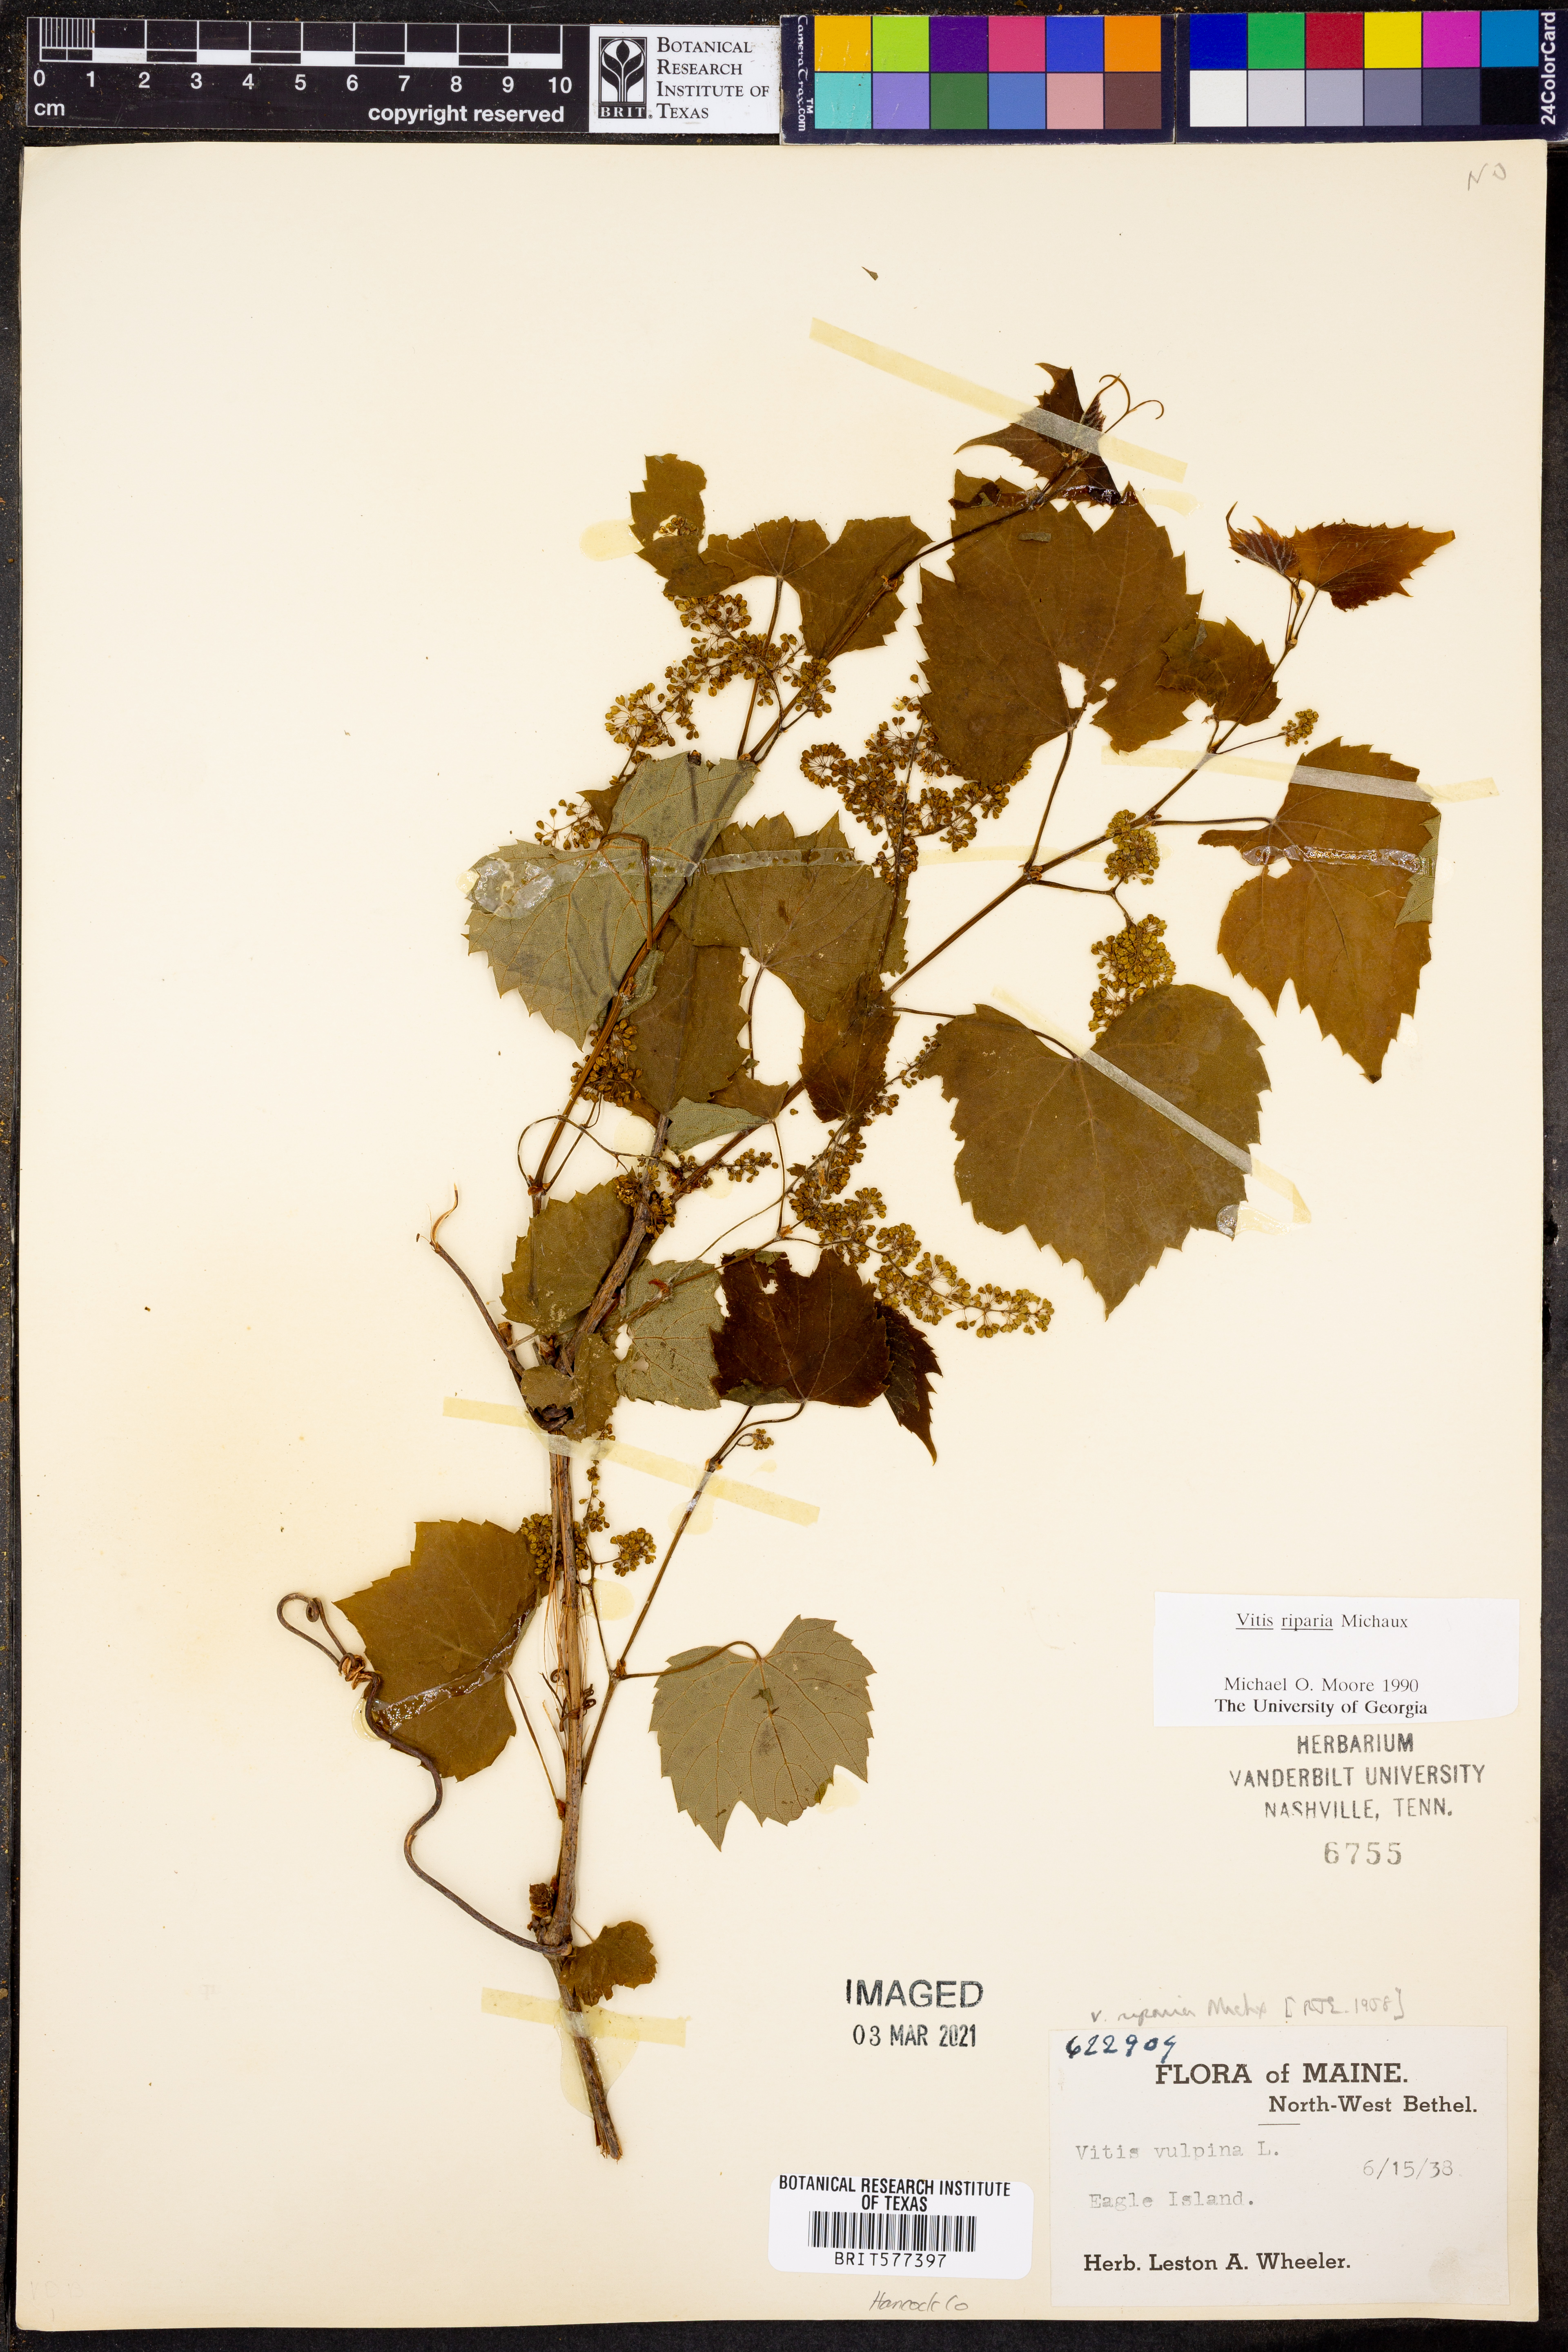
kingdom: Plantae
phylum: Tracheophyta
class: Magnoliopsida
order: Vitales
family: Vitaceae
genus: Vitis
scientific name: Vitis riparia
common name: Frost grape
